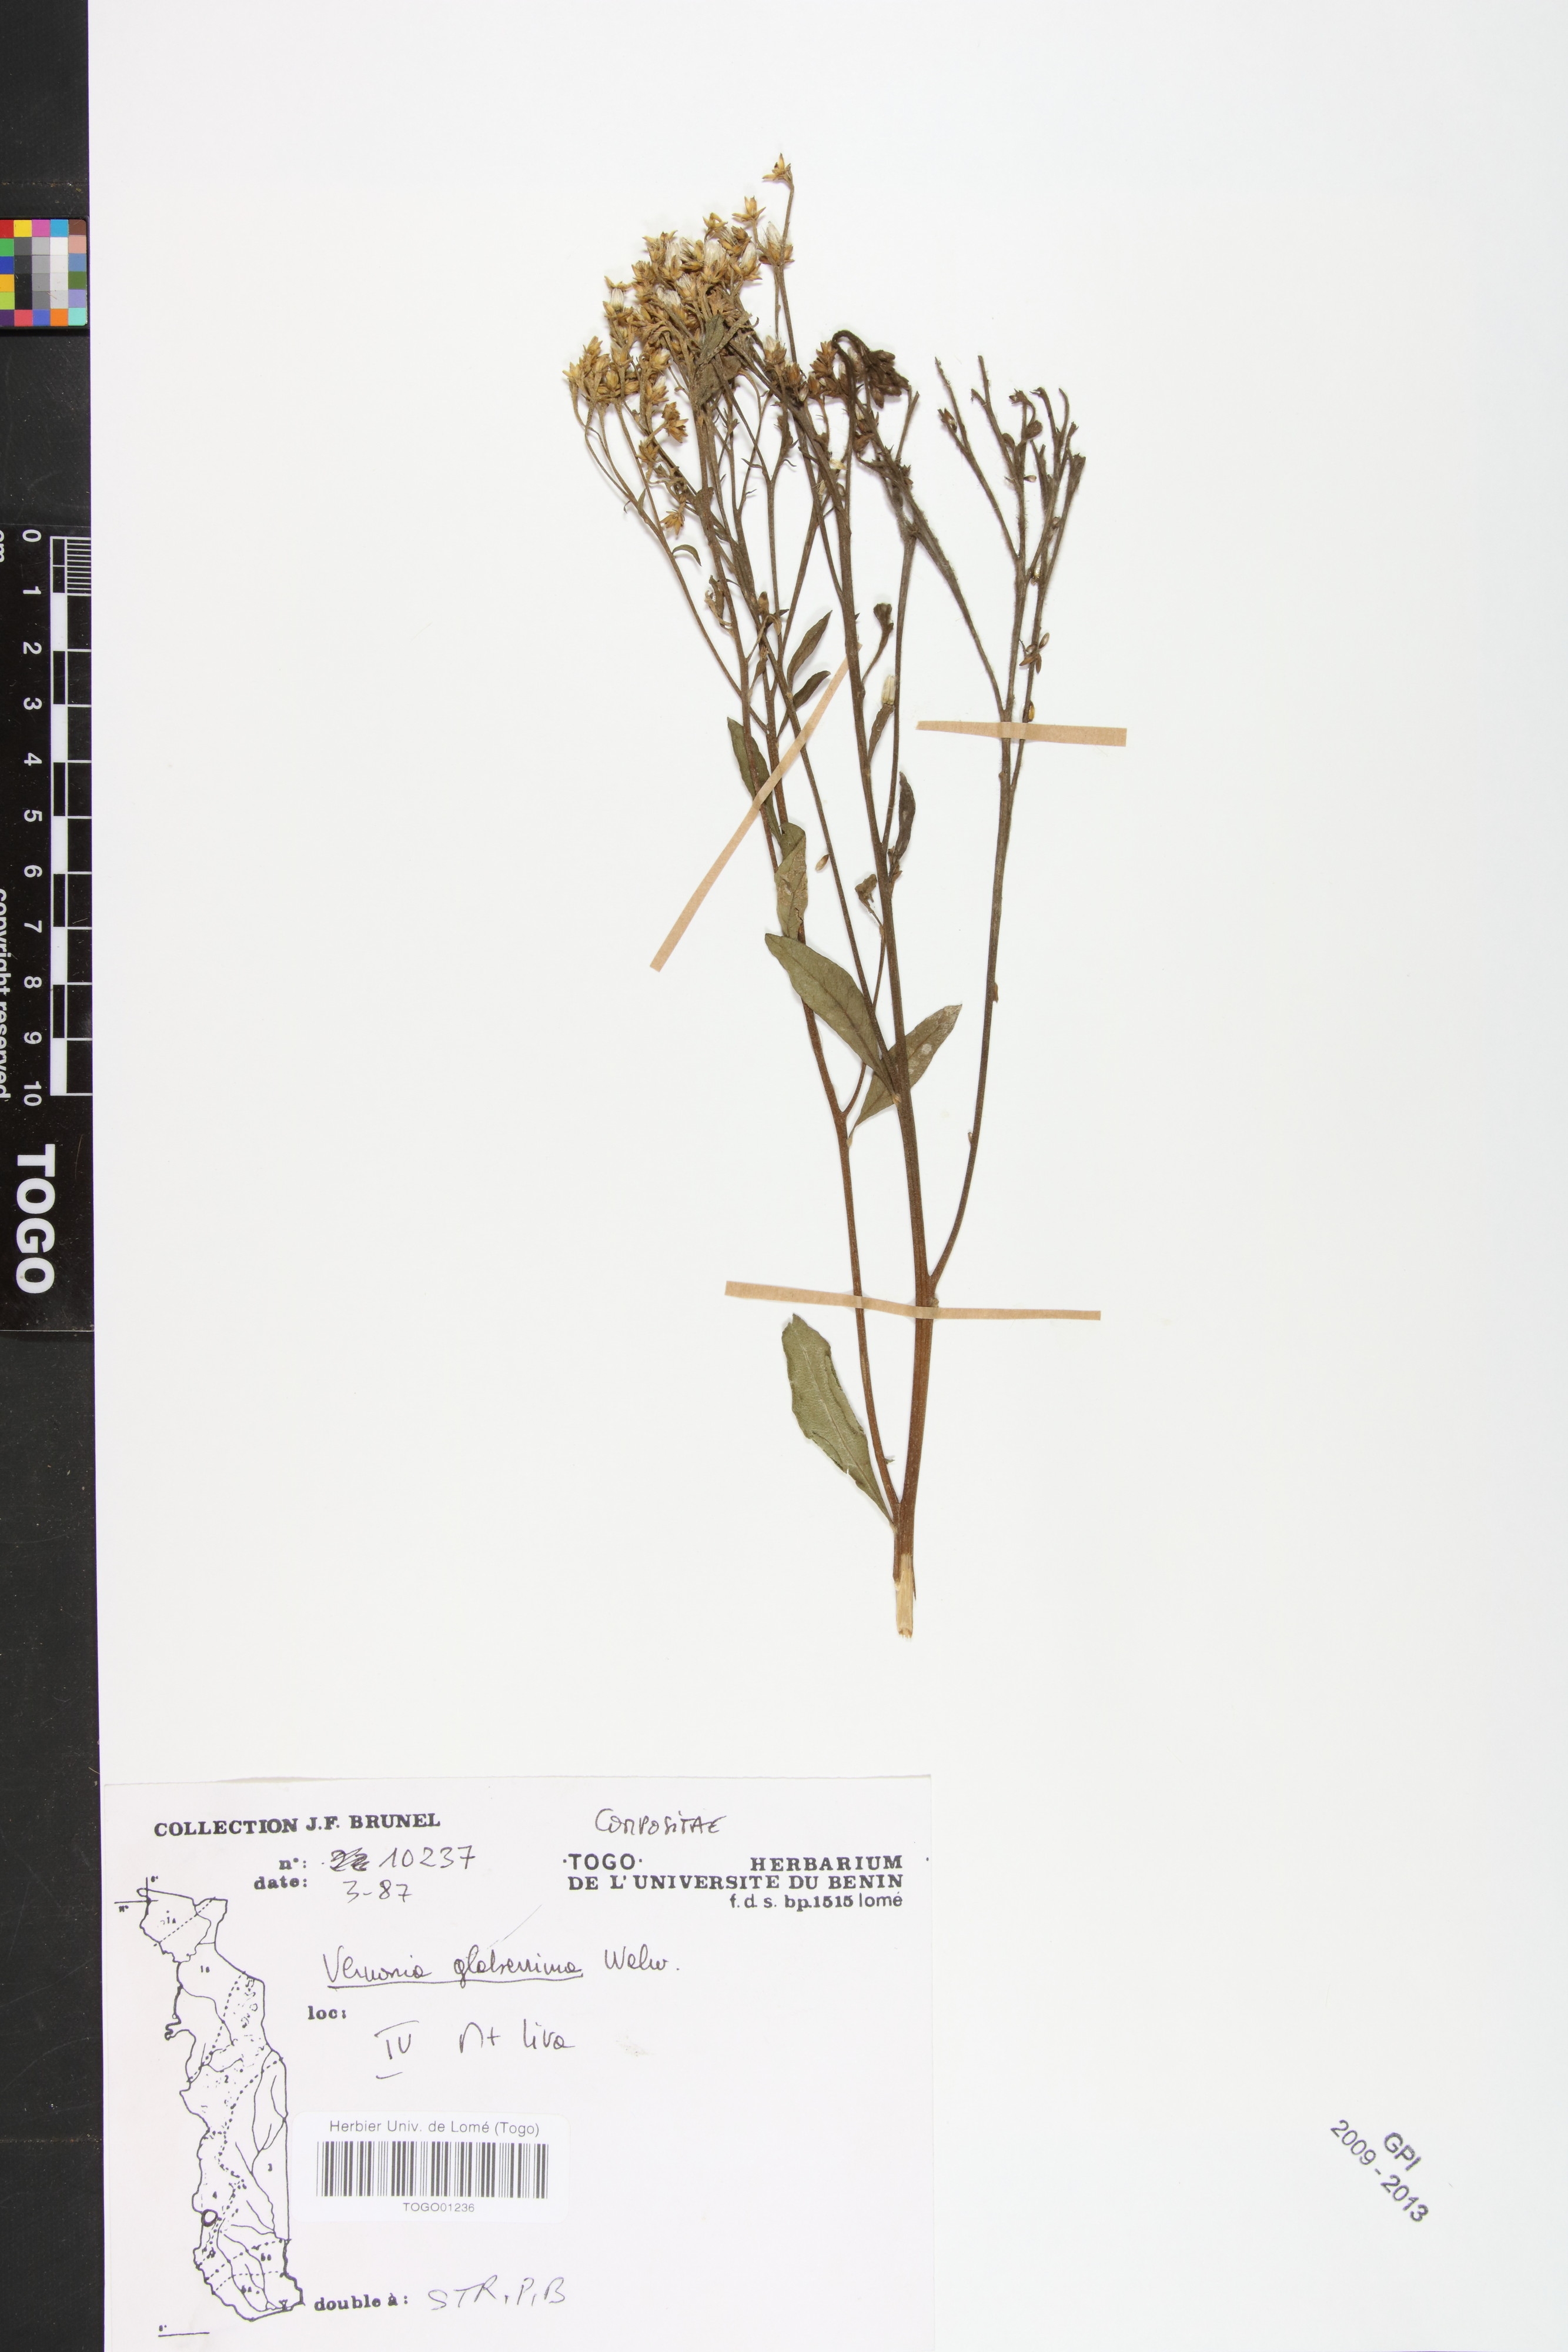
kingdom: Plantae
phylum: Tracheophyta
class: Magnoliopsida
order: Asterales
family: Asteraceae
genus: Gymnanthemum
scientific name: Gymnanthemum glaberrimum
